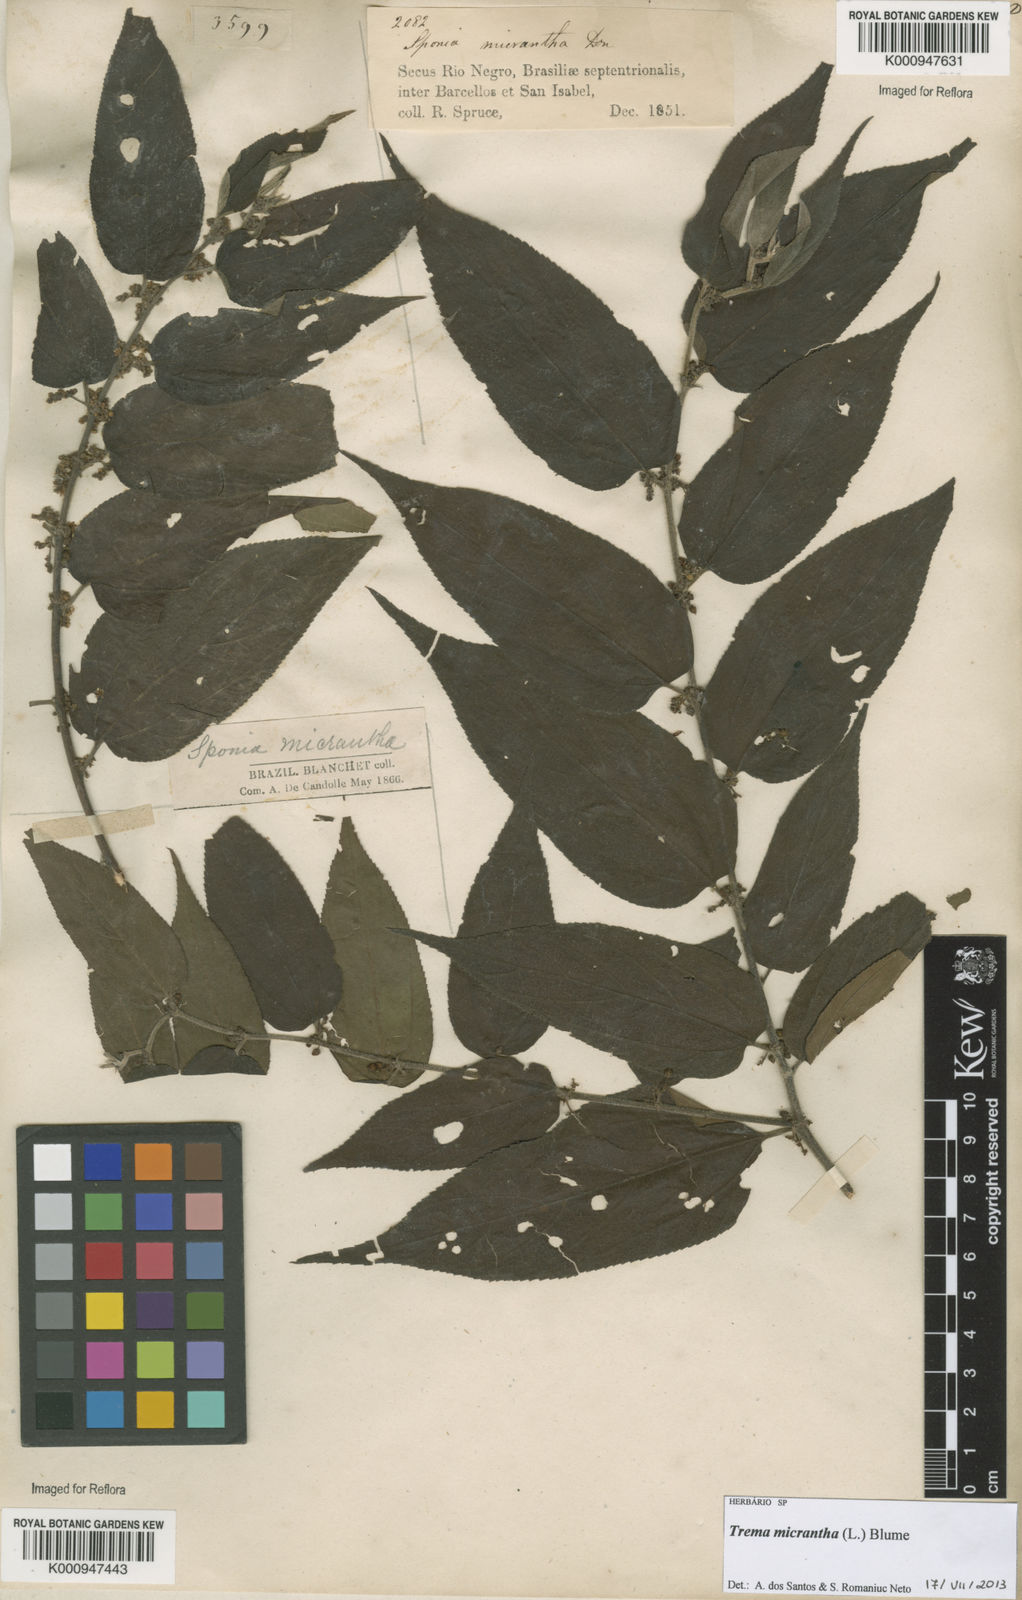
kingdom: Plantae
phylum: Tracheophyta
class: Magnoliopsida
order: Rosales
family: Cannabaceae
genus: Trema
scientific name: Trema micranthum
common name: Jamaican nettletree
